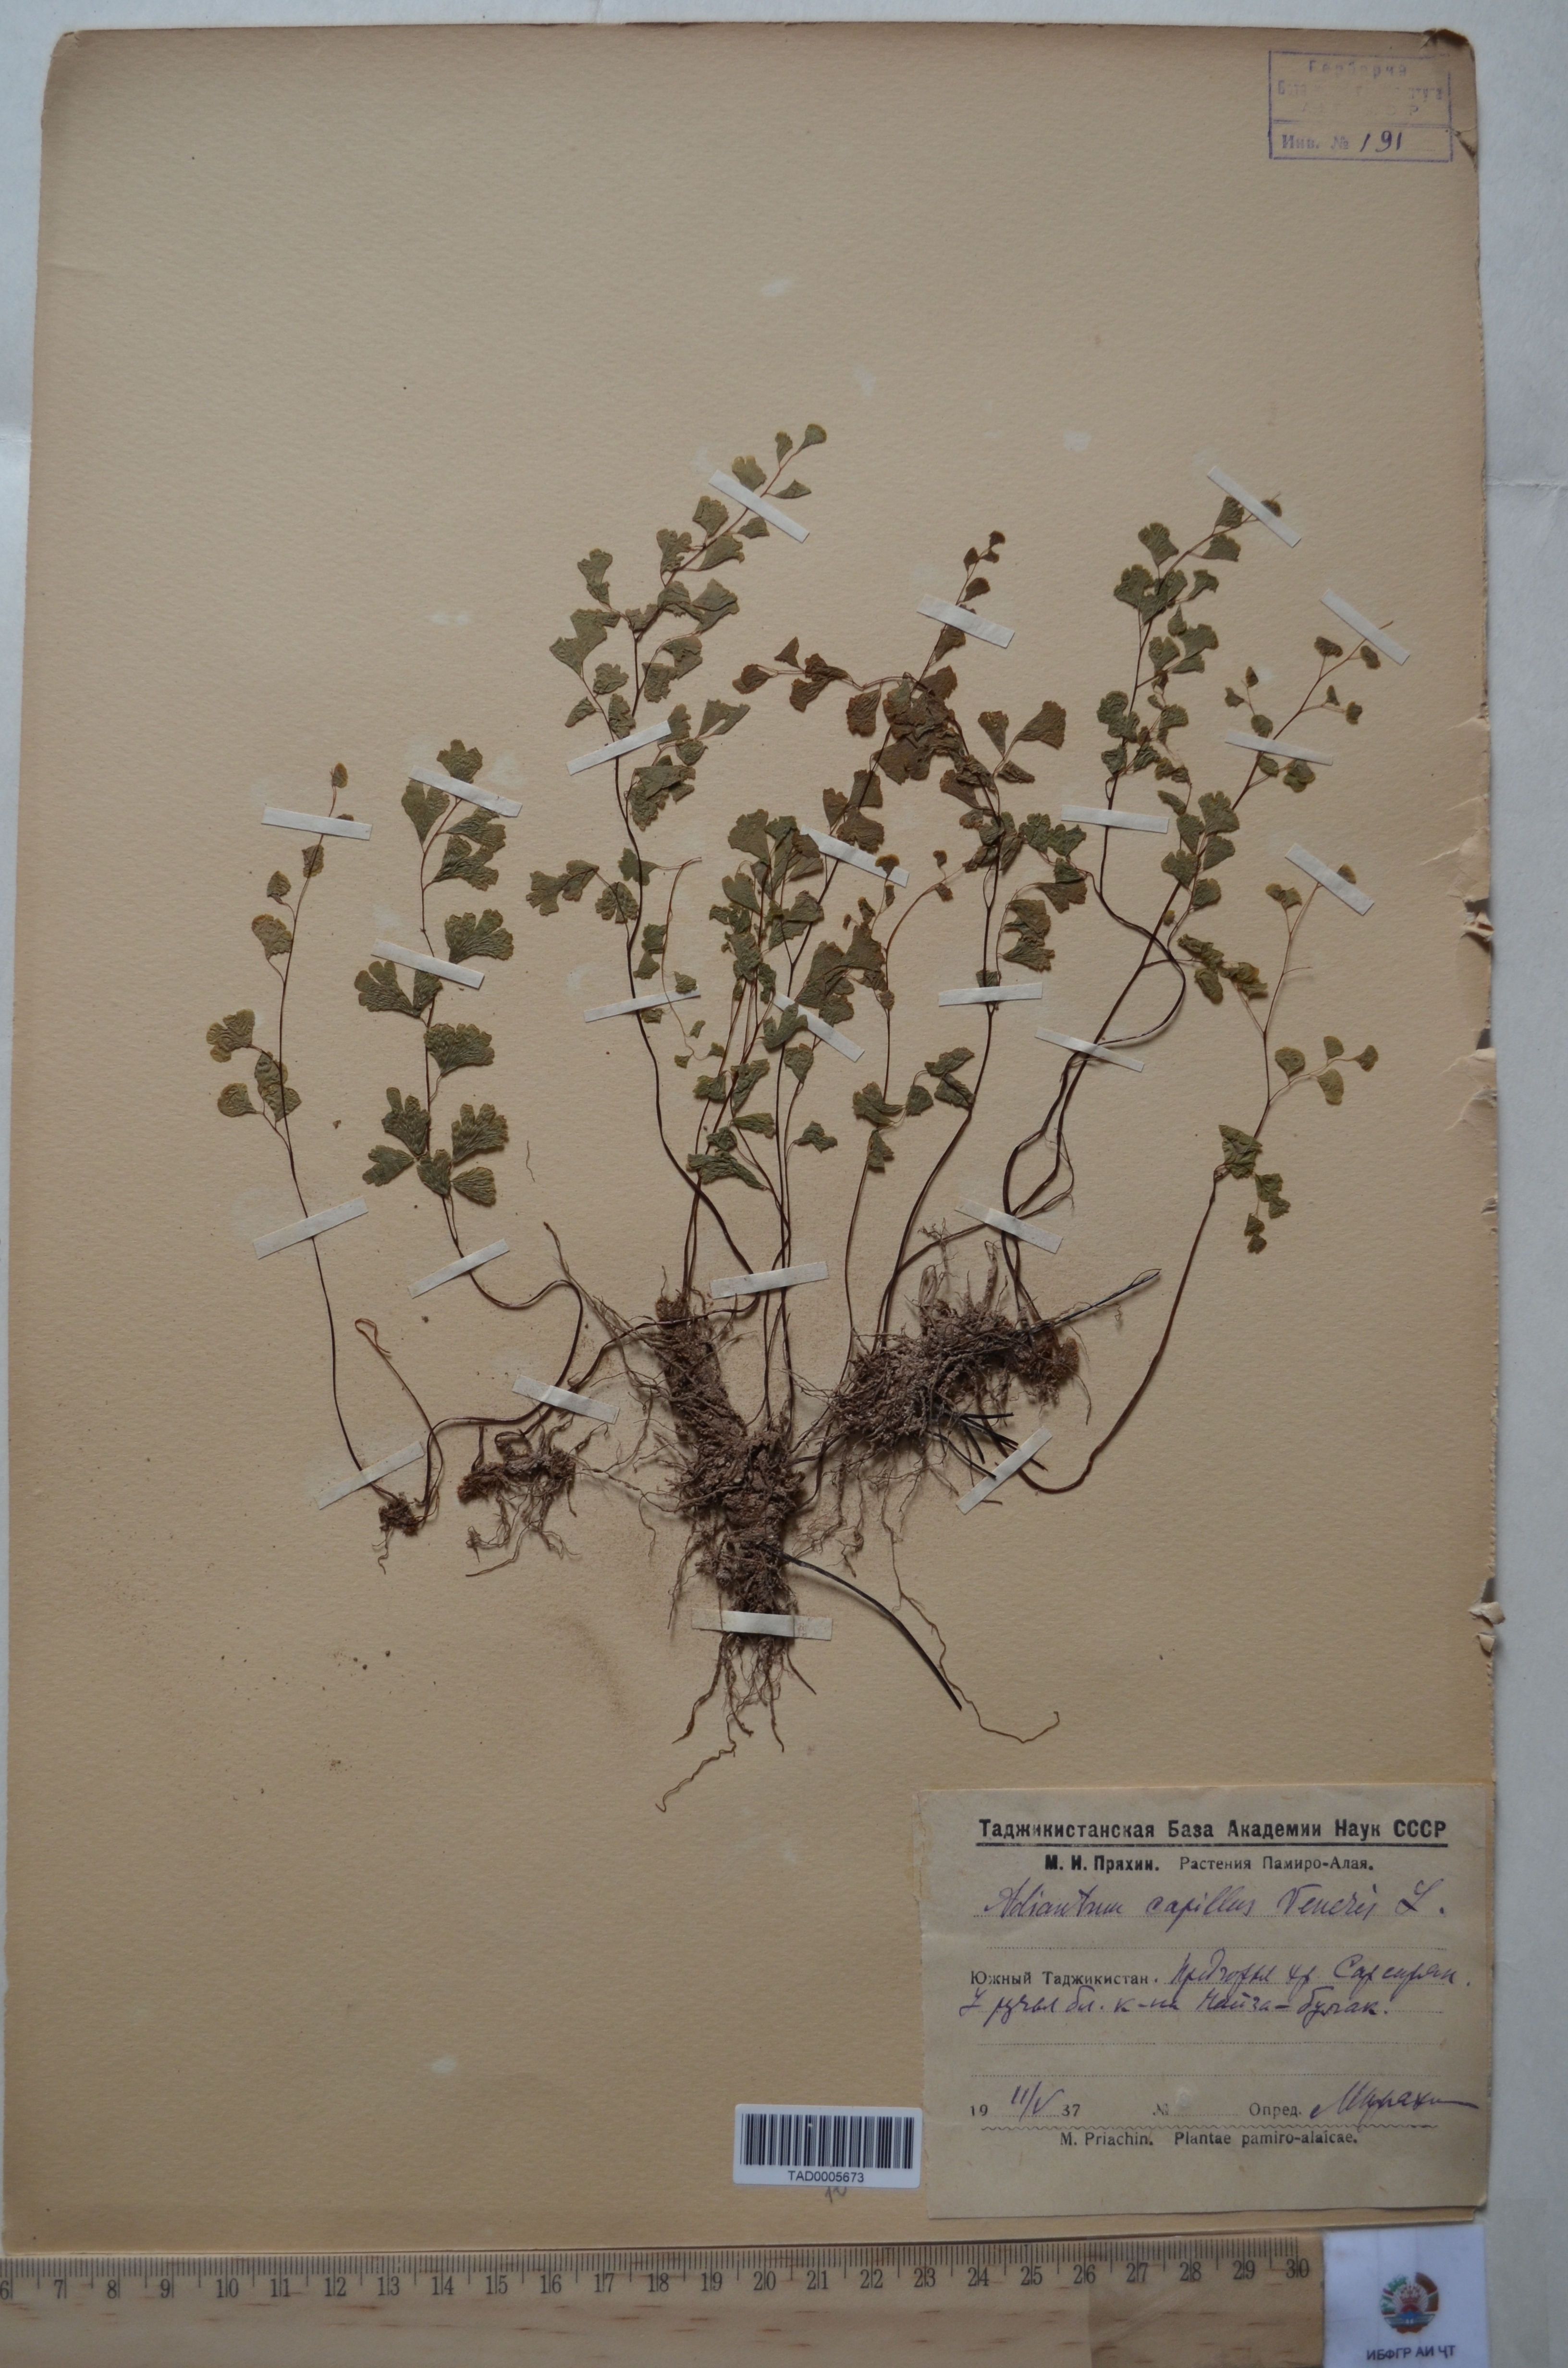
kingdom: Plantae
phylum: Tracheophyta
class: Polypodiopsida
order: Polypodiales
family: Pteridaceae
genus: Adiantum
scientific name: Adiantum capillus-veneris
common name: Maidenhair fern
